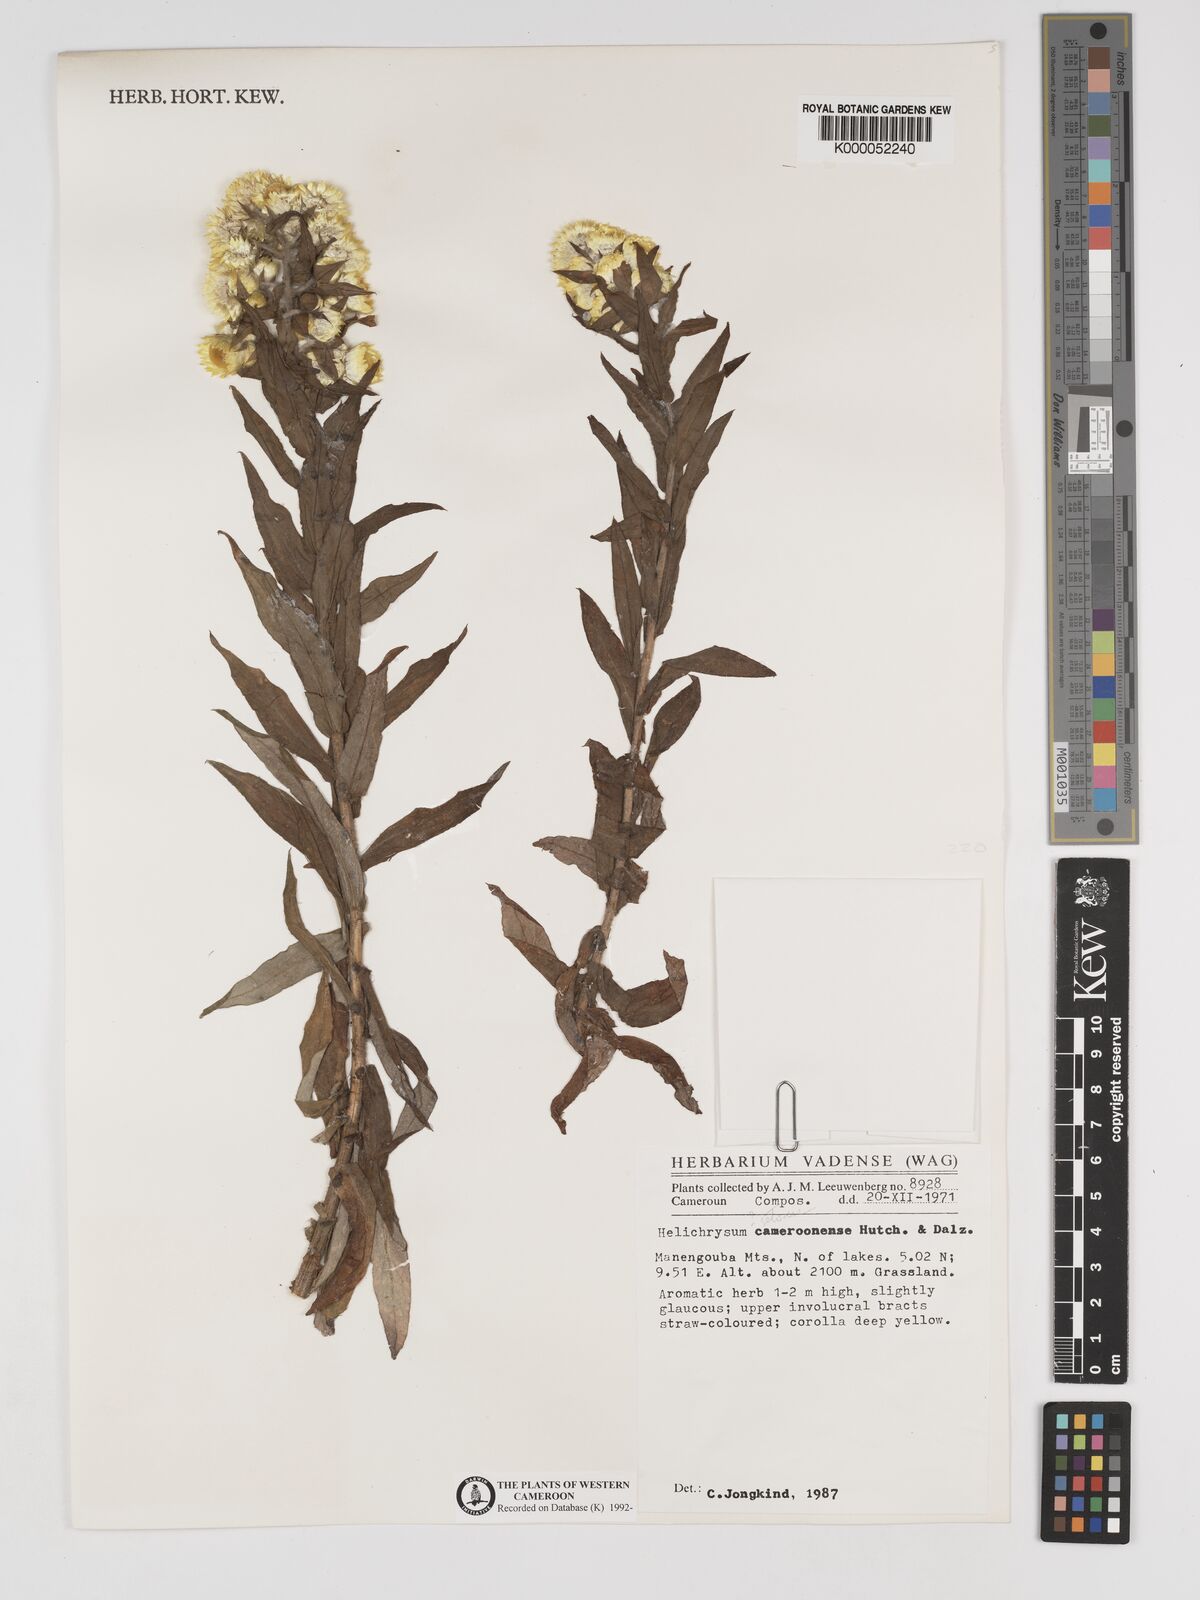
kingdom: Plantae
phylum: Tracheophyta
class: Magnoliopsida
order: Asterales
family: Asteraceae
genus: Helichrysum
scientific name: Helichrysum cameroonense
